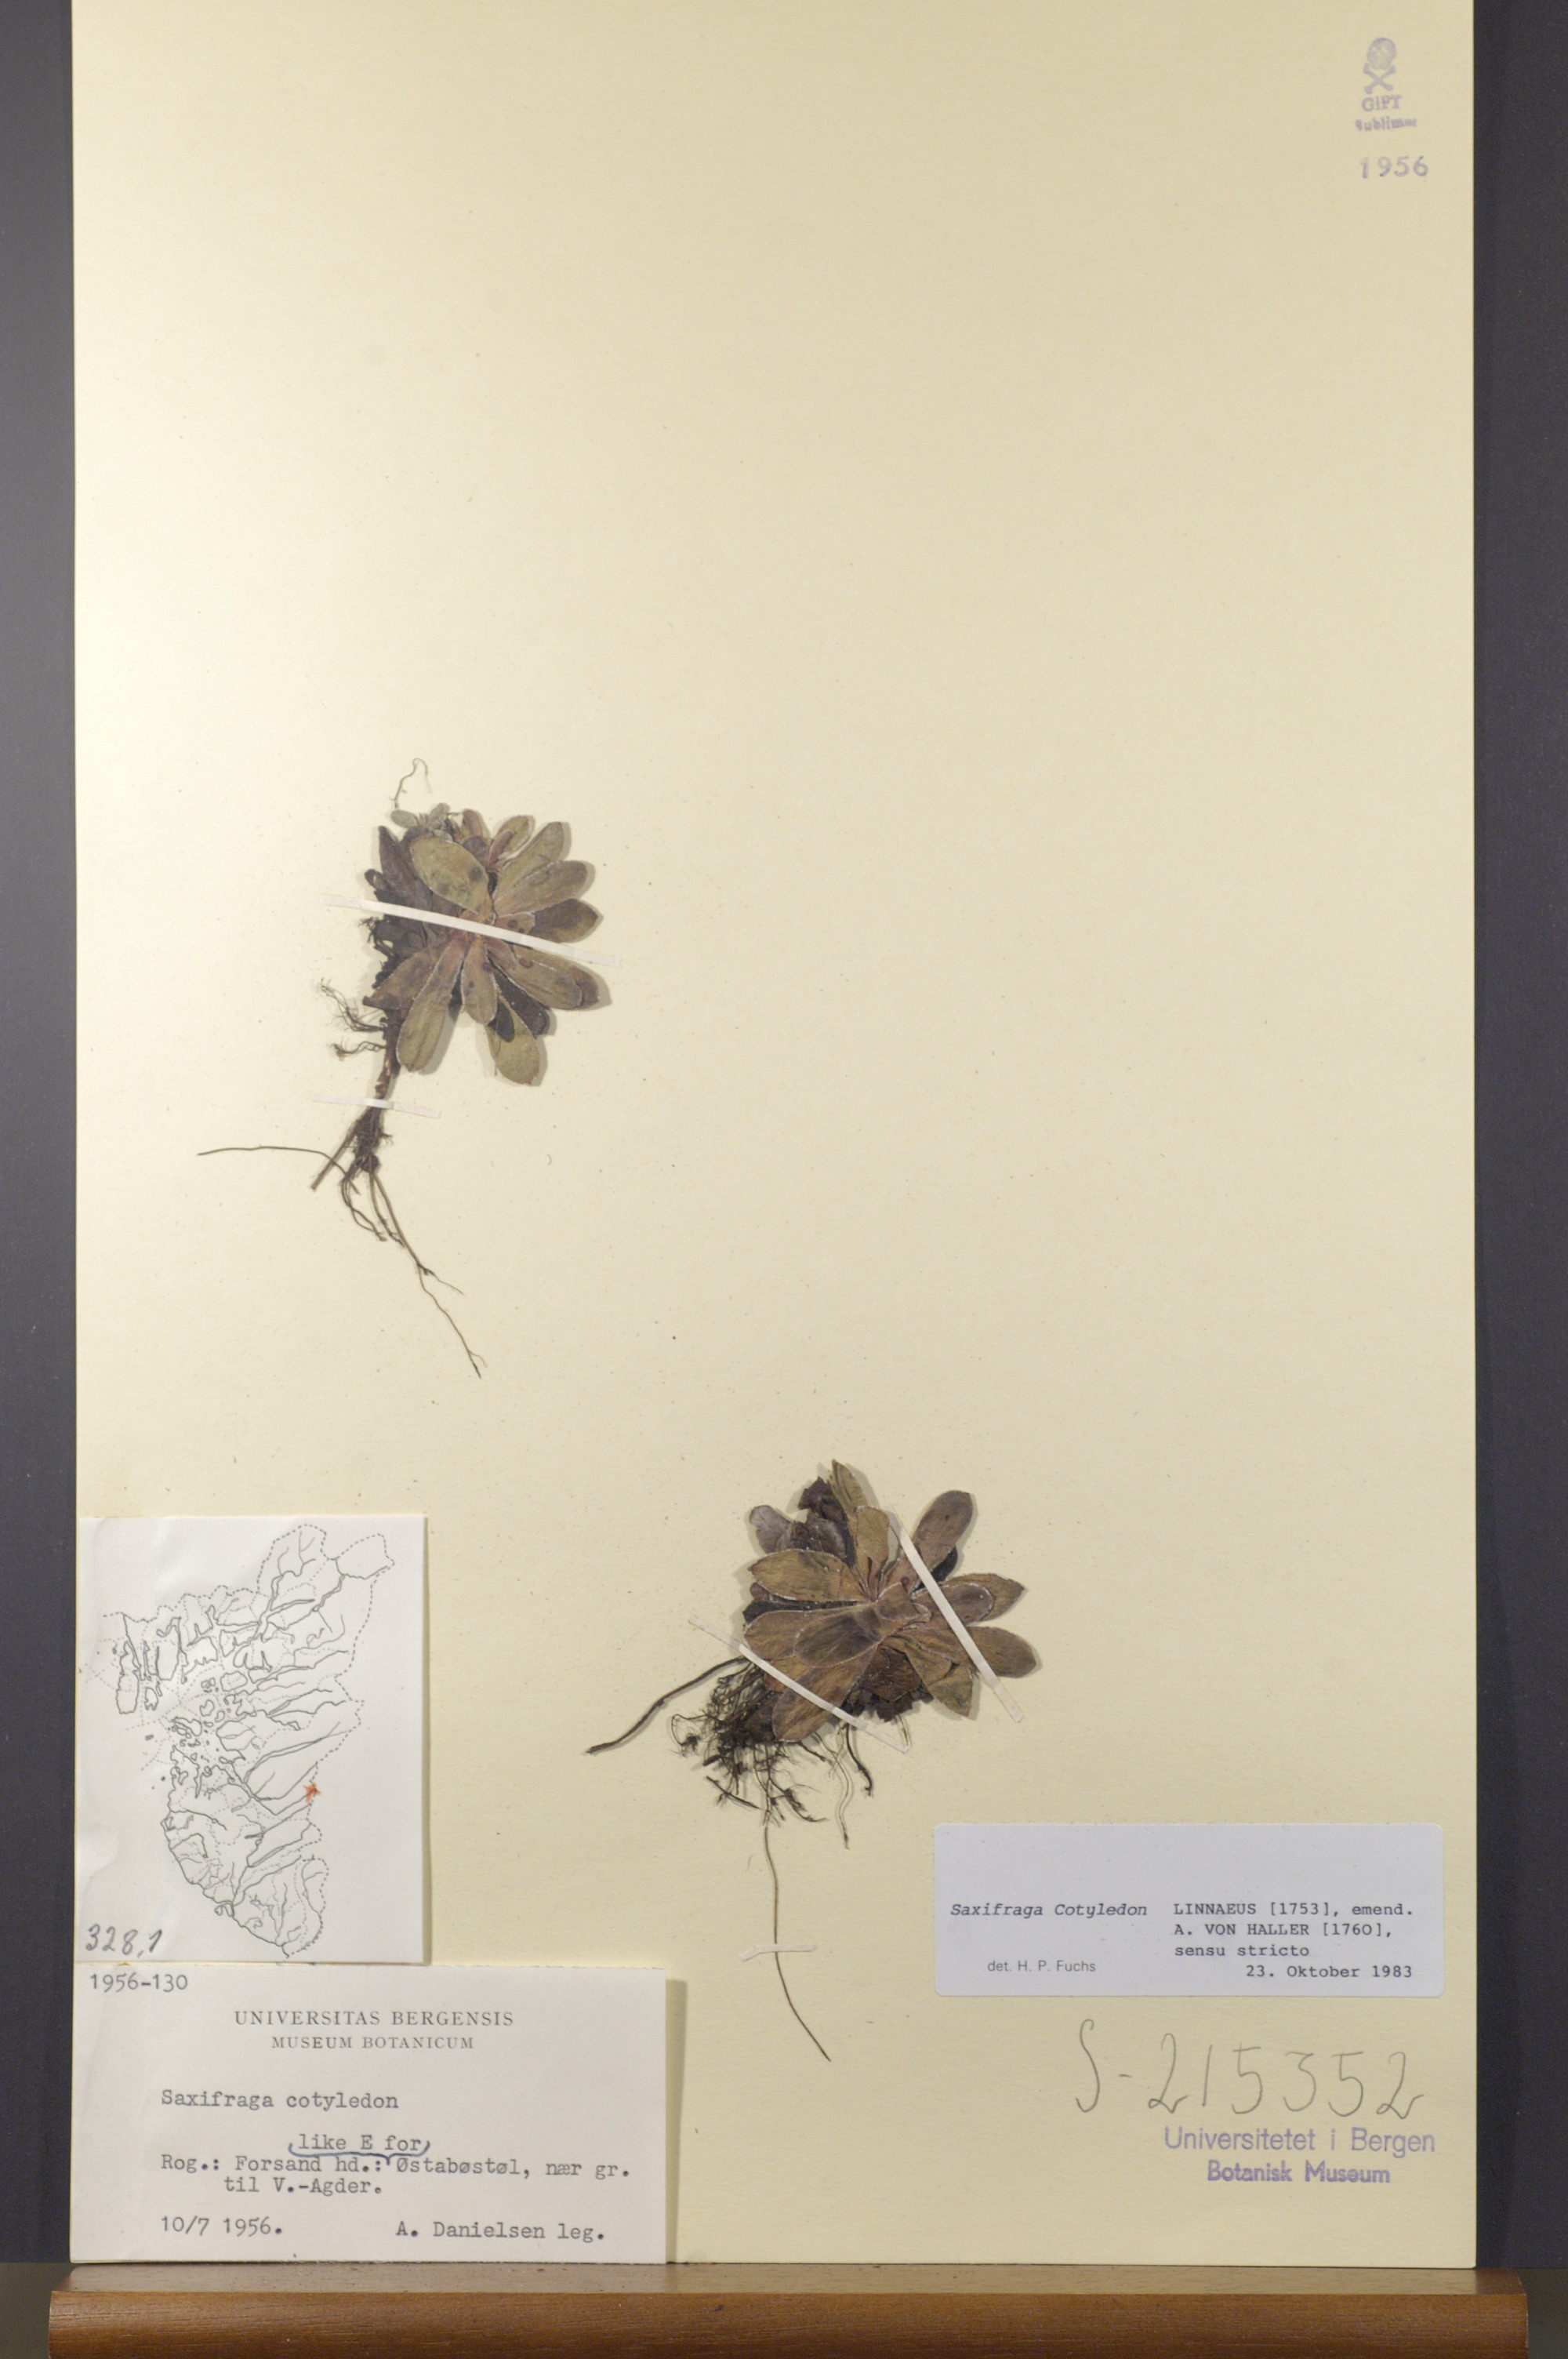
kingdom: Plantae
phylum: Tracheophyta
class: Magnoliopsida
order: Saxifragales
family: Saxifragaceae
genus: Saxifraga
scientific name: Saxifraga cotyledon
